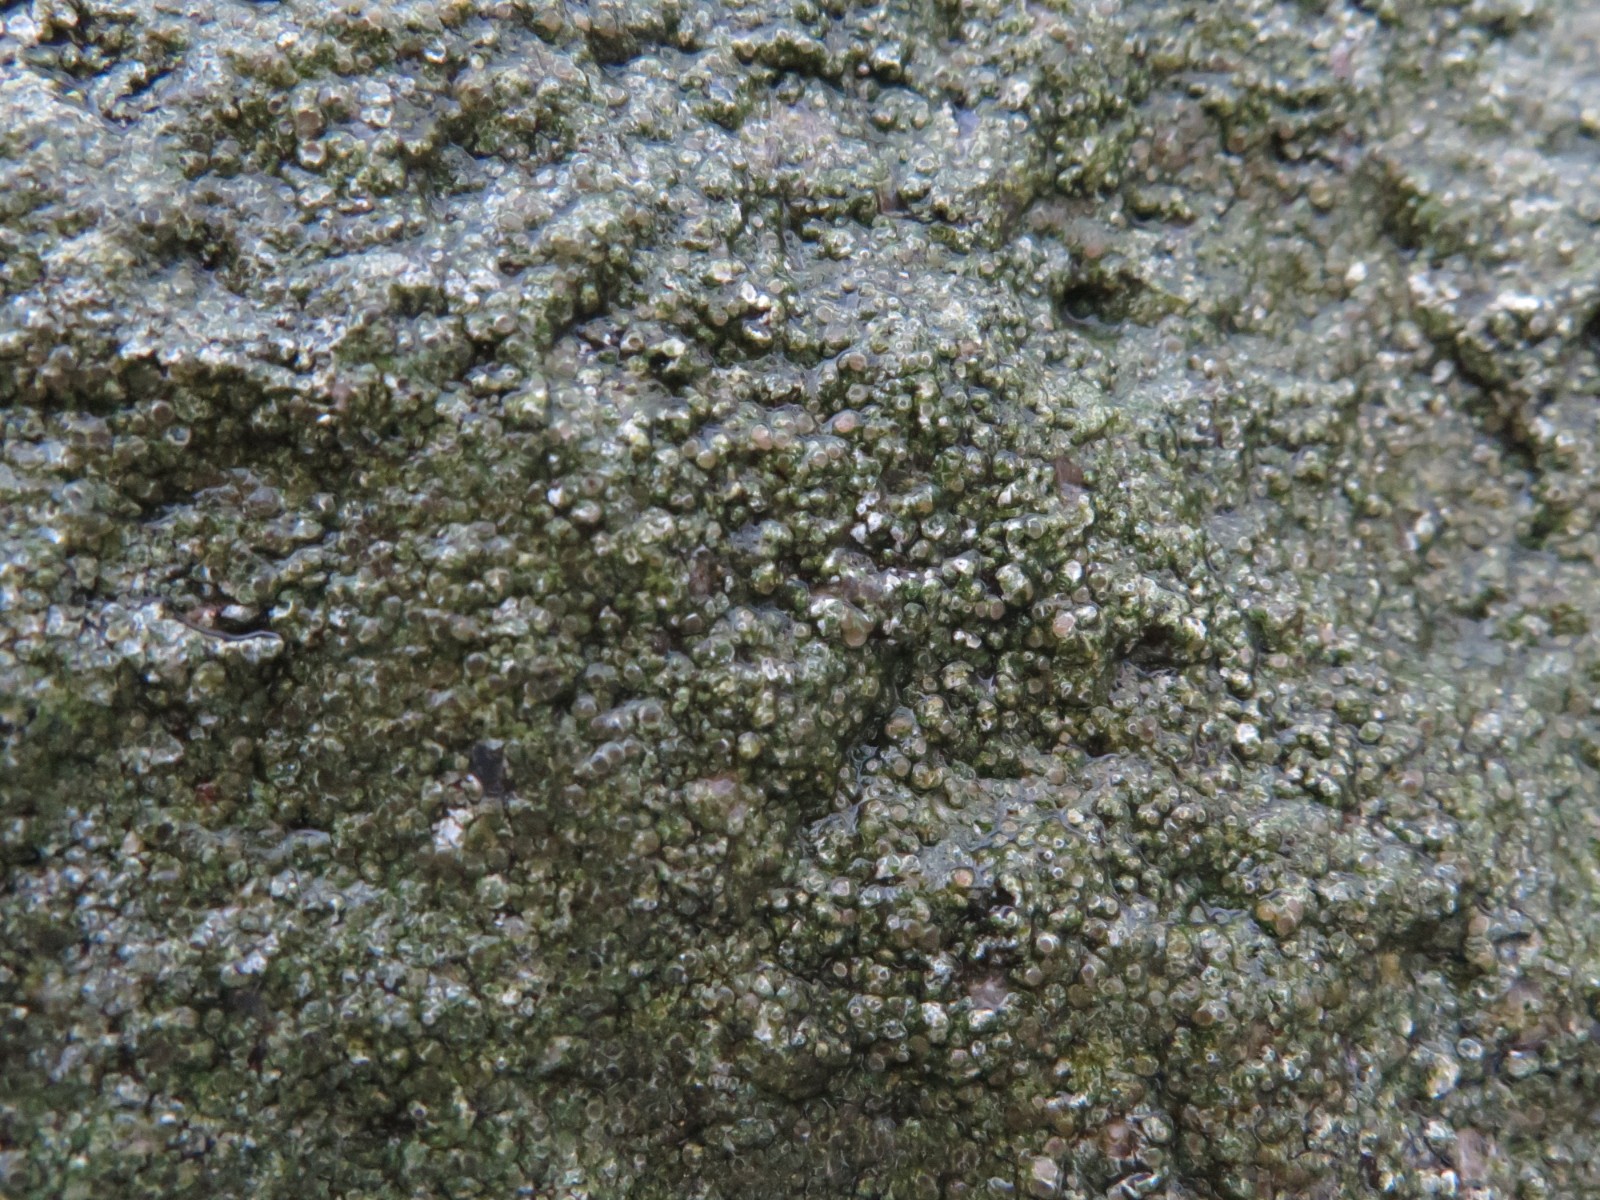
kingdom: Fungi
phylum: Ascomycota
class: Lecanoromycetes
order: Pertusariales
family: Megasporaceae
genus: Aspicilia
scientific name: Aspicilia
